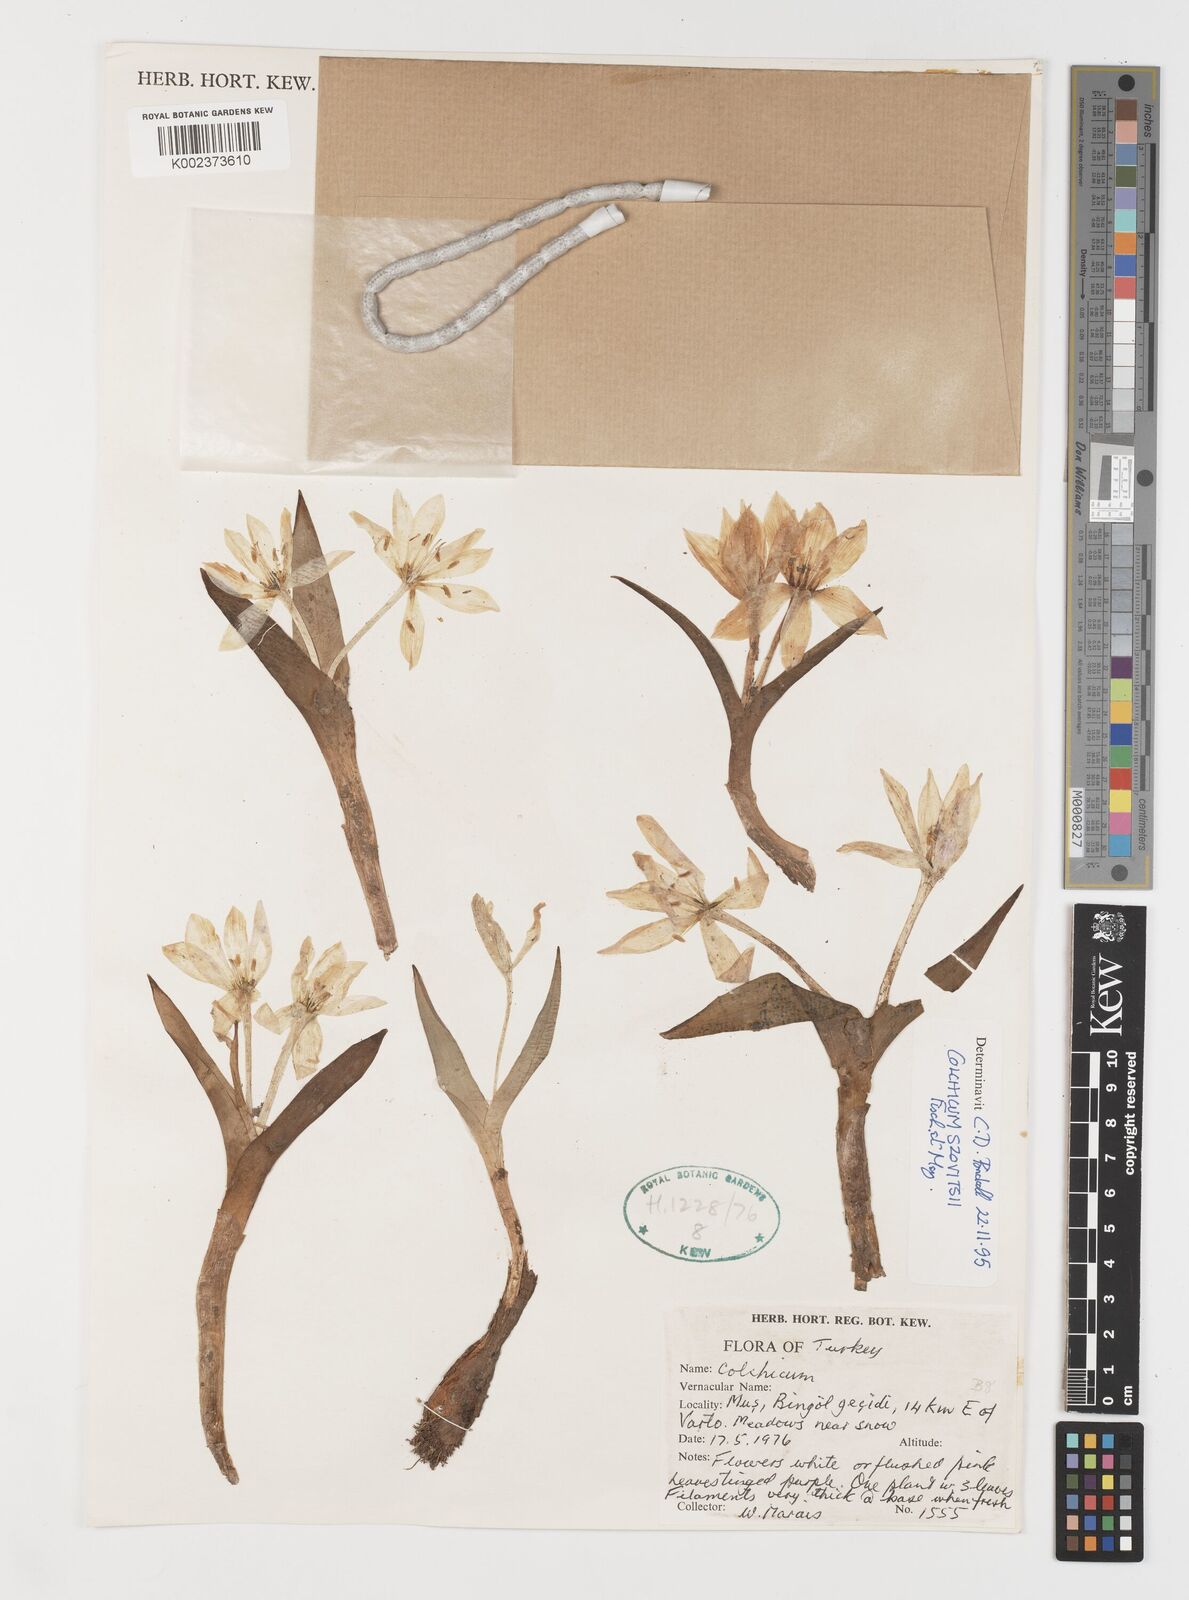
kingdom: Plantae
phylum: Tracheophyta
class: Liliopsida
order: Liliales
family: Colchicaceae
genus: Colchicum
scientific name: Colchicum szovitsii
